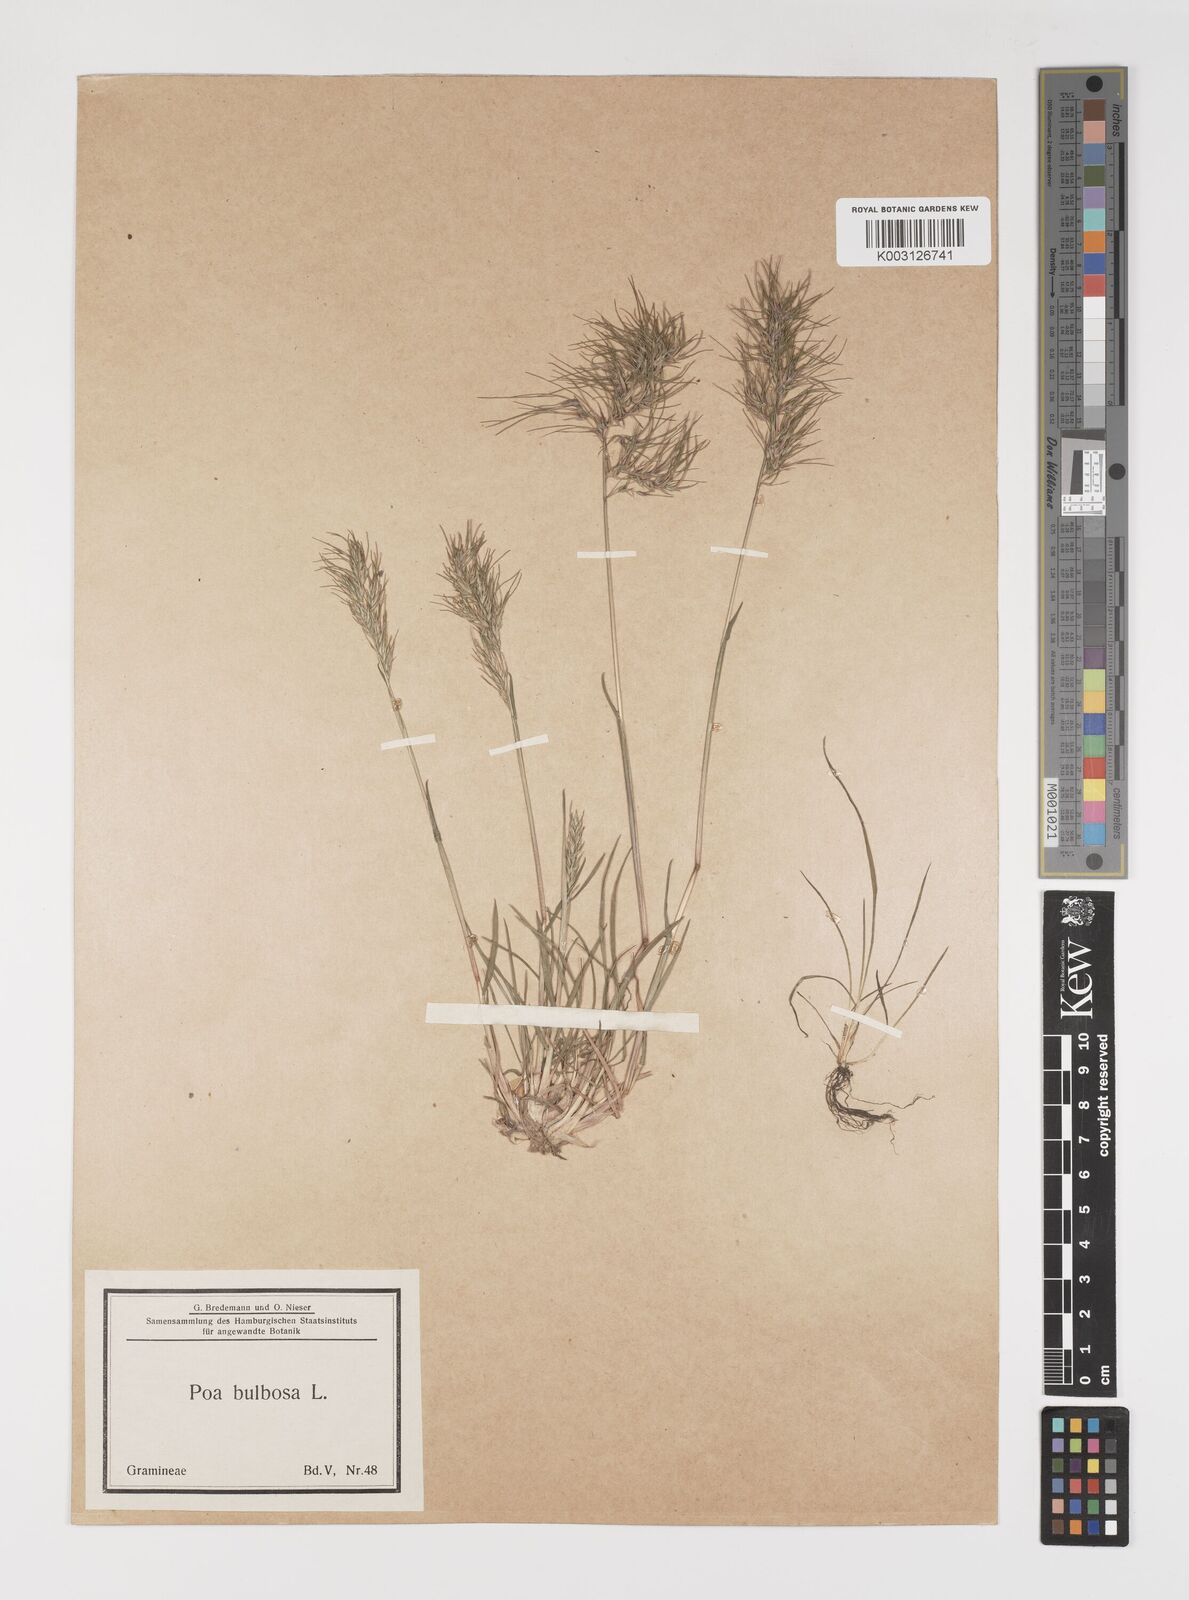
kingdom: Plantae
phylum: Tracheophyta
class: Liliopsida
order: Poales
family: Poaceae
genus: Poa
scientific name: Poa bulbosa
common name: Bulbous bluegrass
